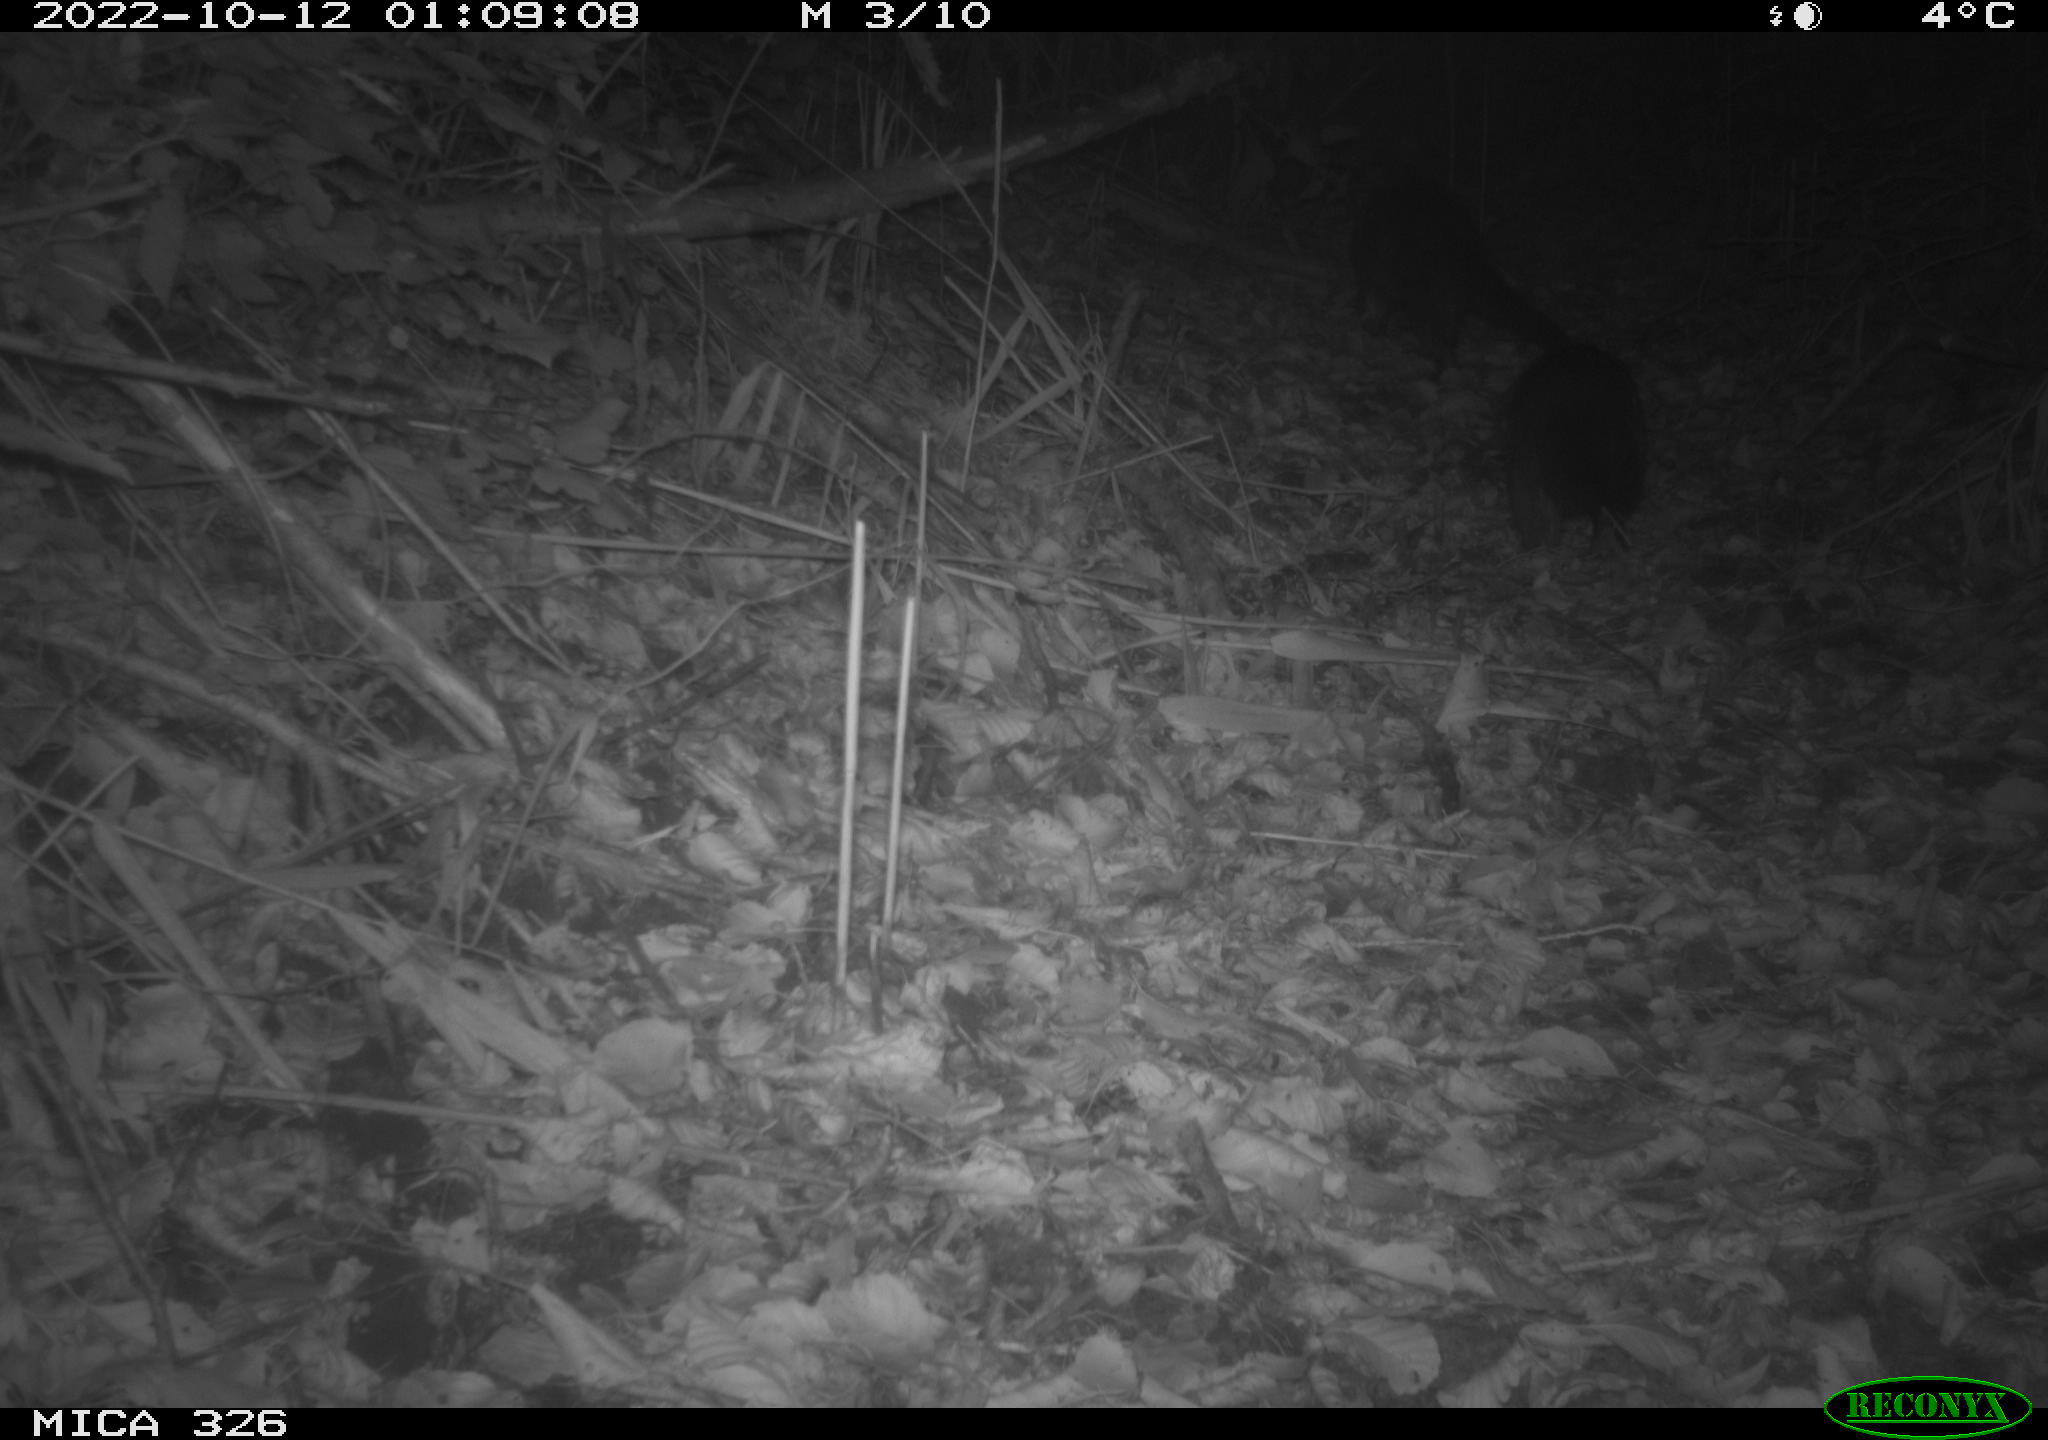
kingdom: Animalia
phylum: Chordata
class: Mammalia
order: Carnivora
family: Mustelidae
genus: Lutra
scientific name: Lutra lutra
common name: European otter
